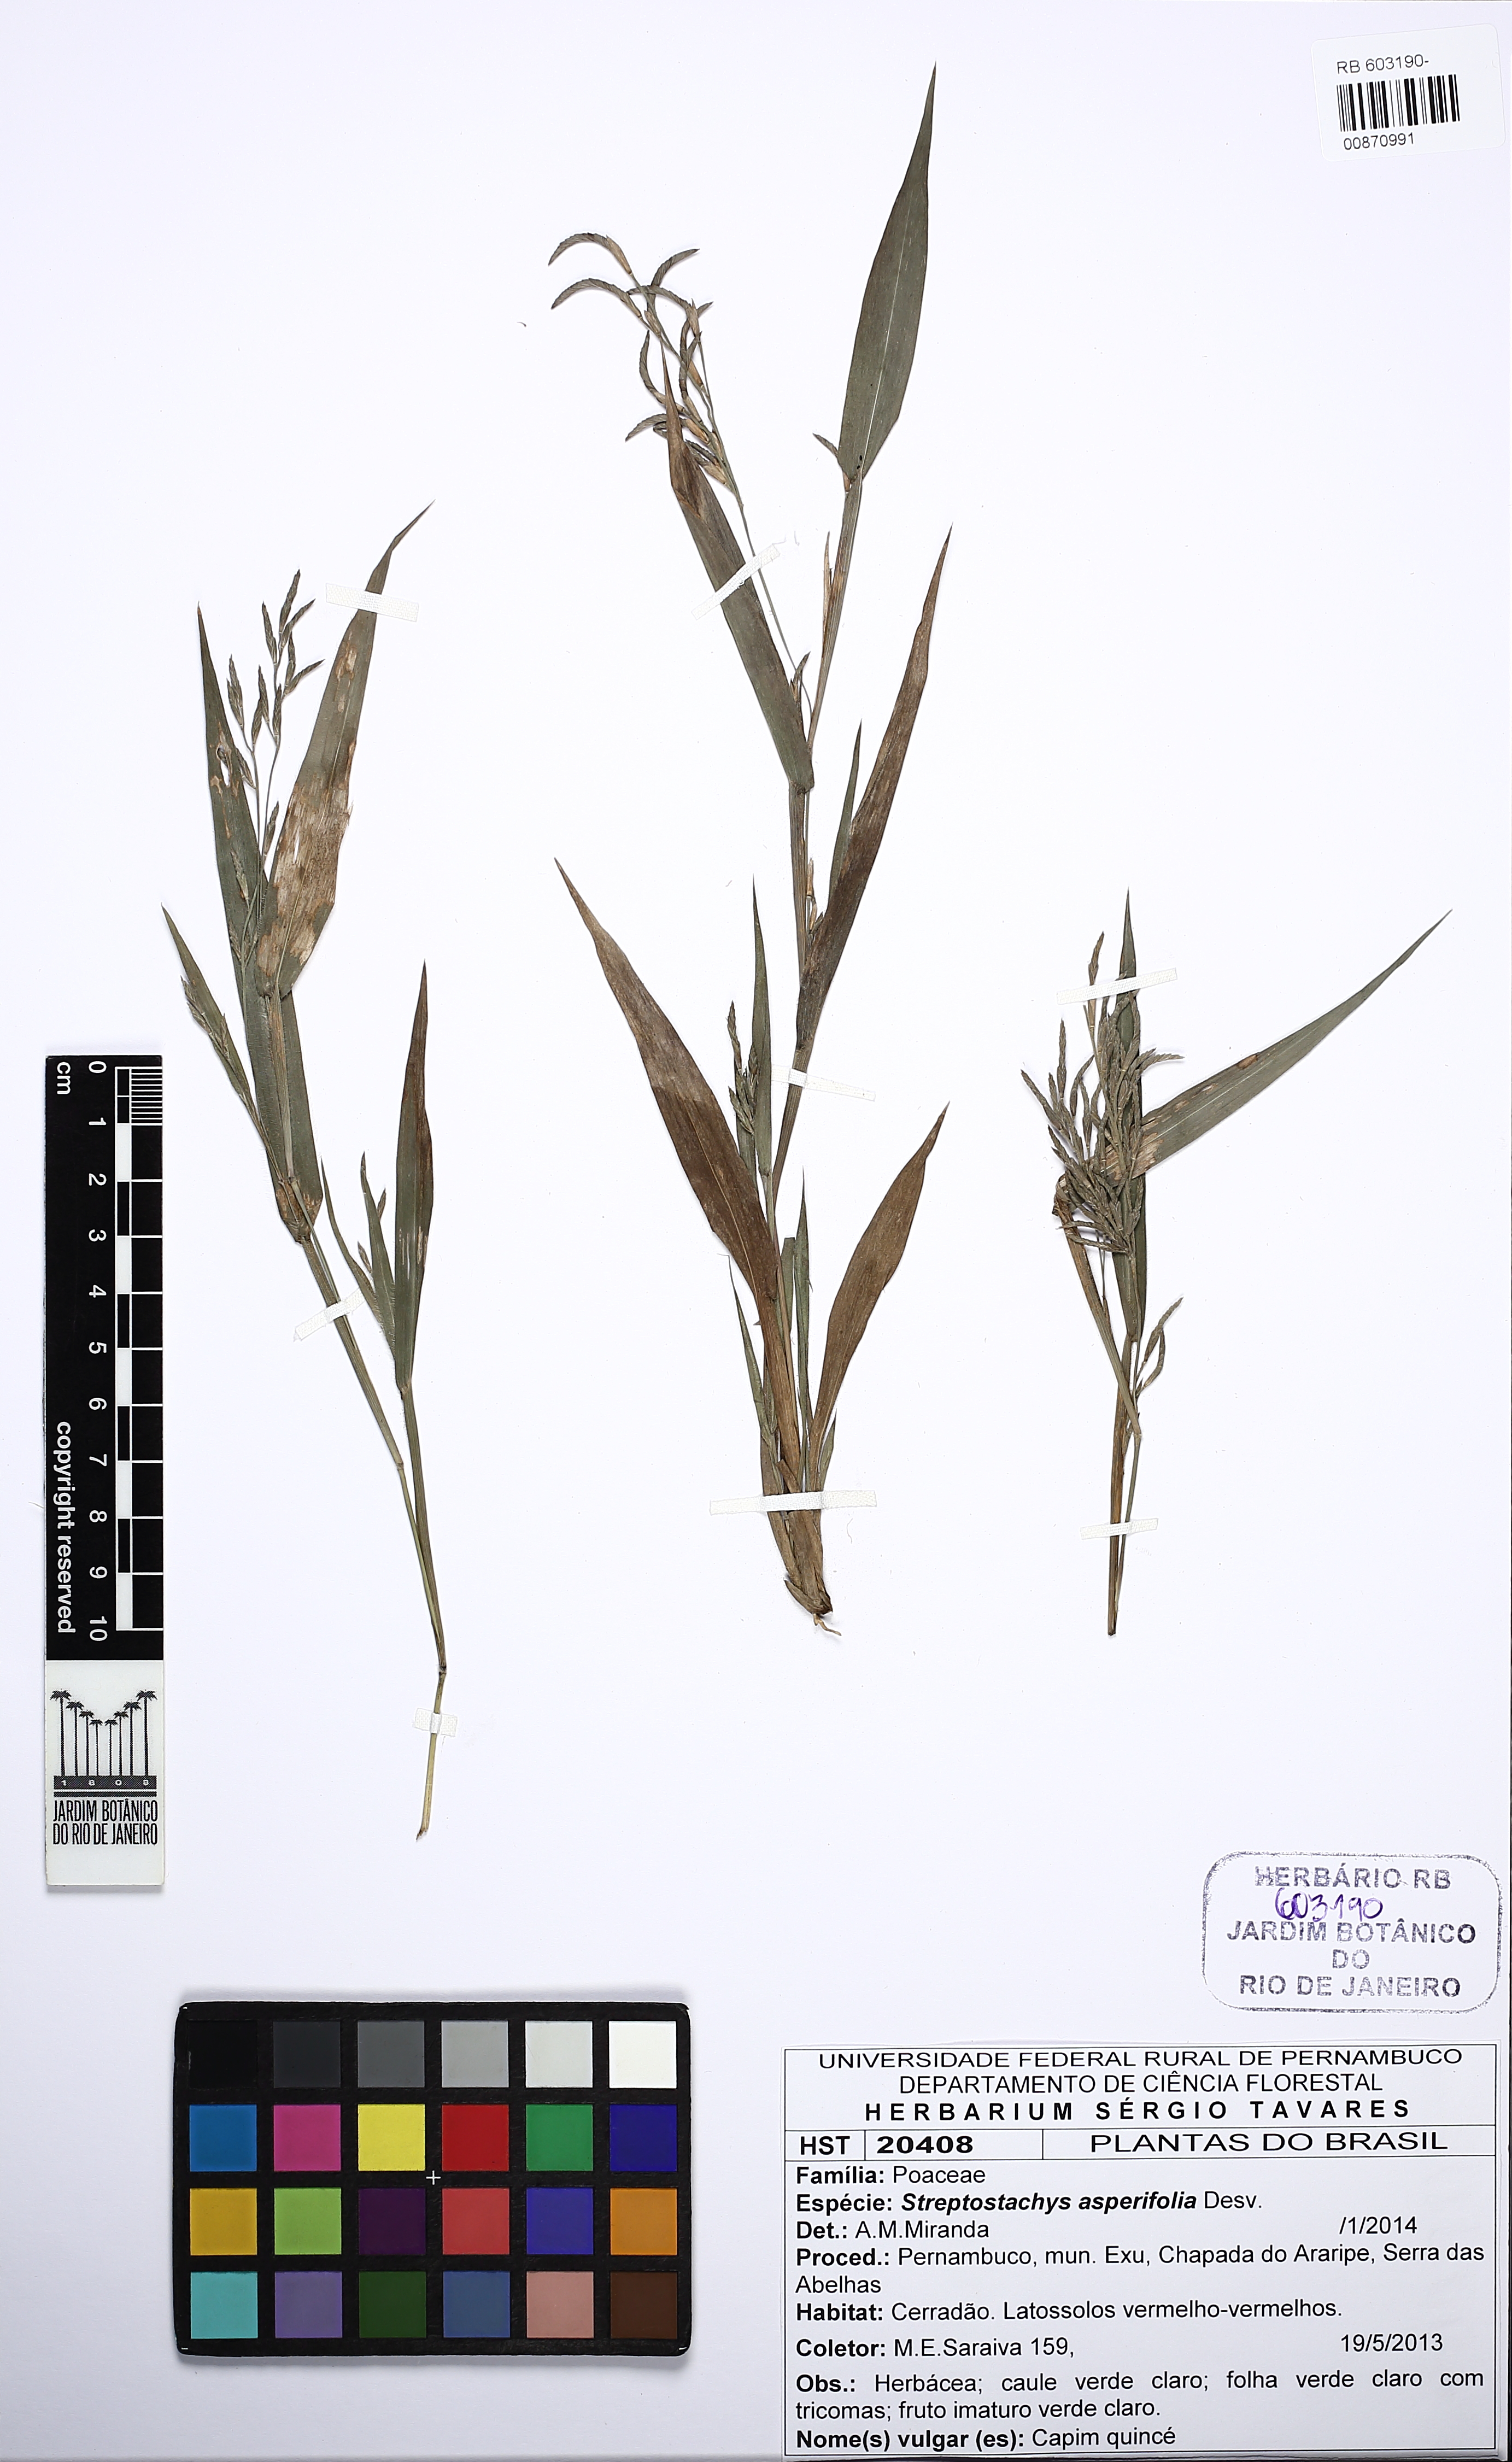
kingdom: Plantae
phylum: Tracheophyta
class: Liliopsida
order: Poales
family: Poaceae
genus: Streptostachys
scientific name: Streptostachys asperifolia
